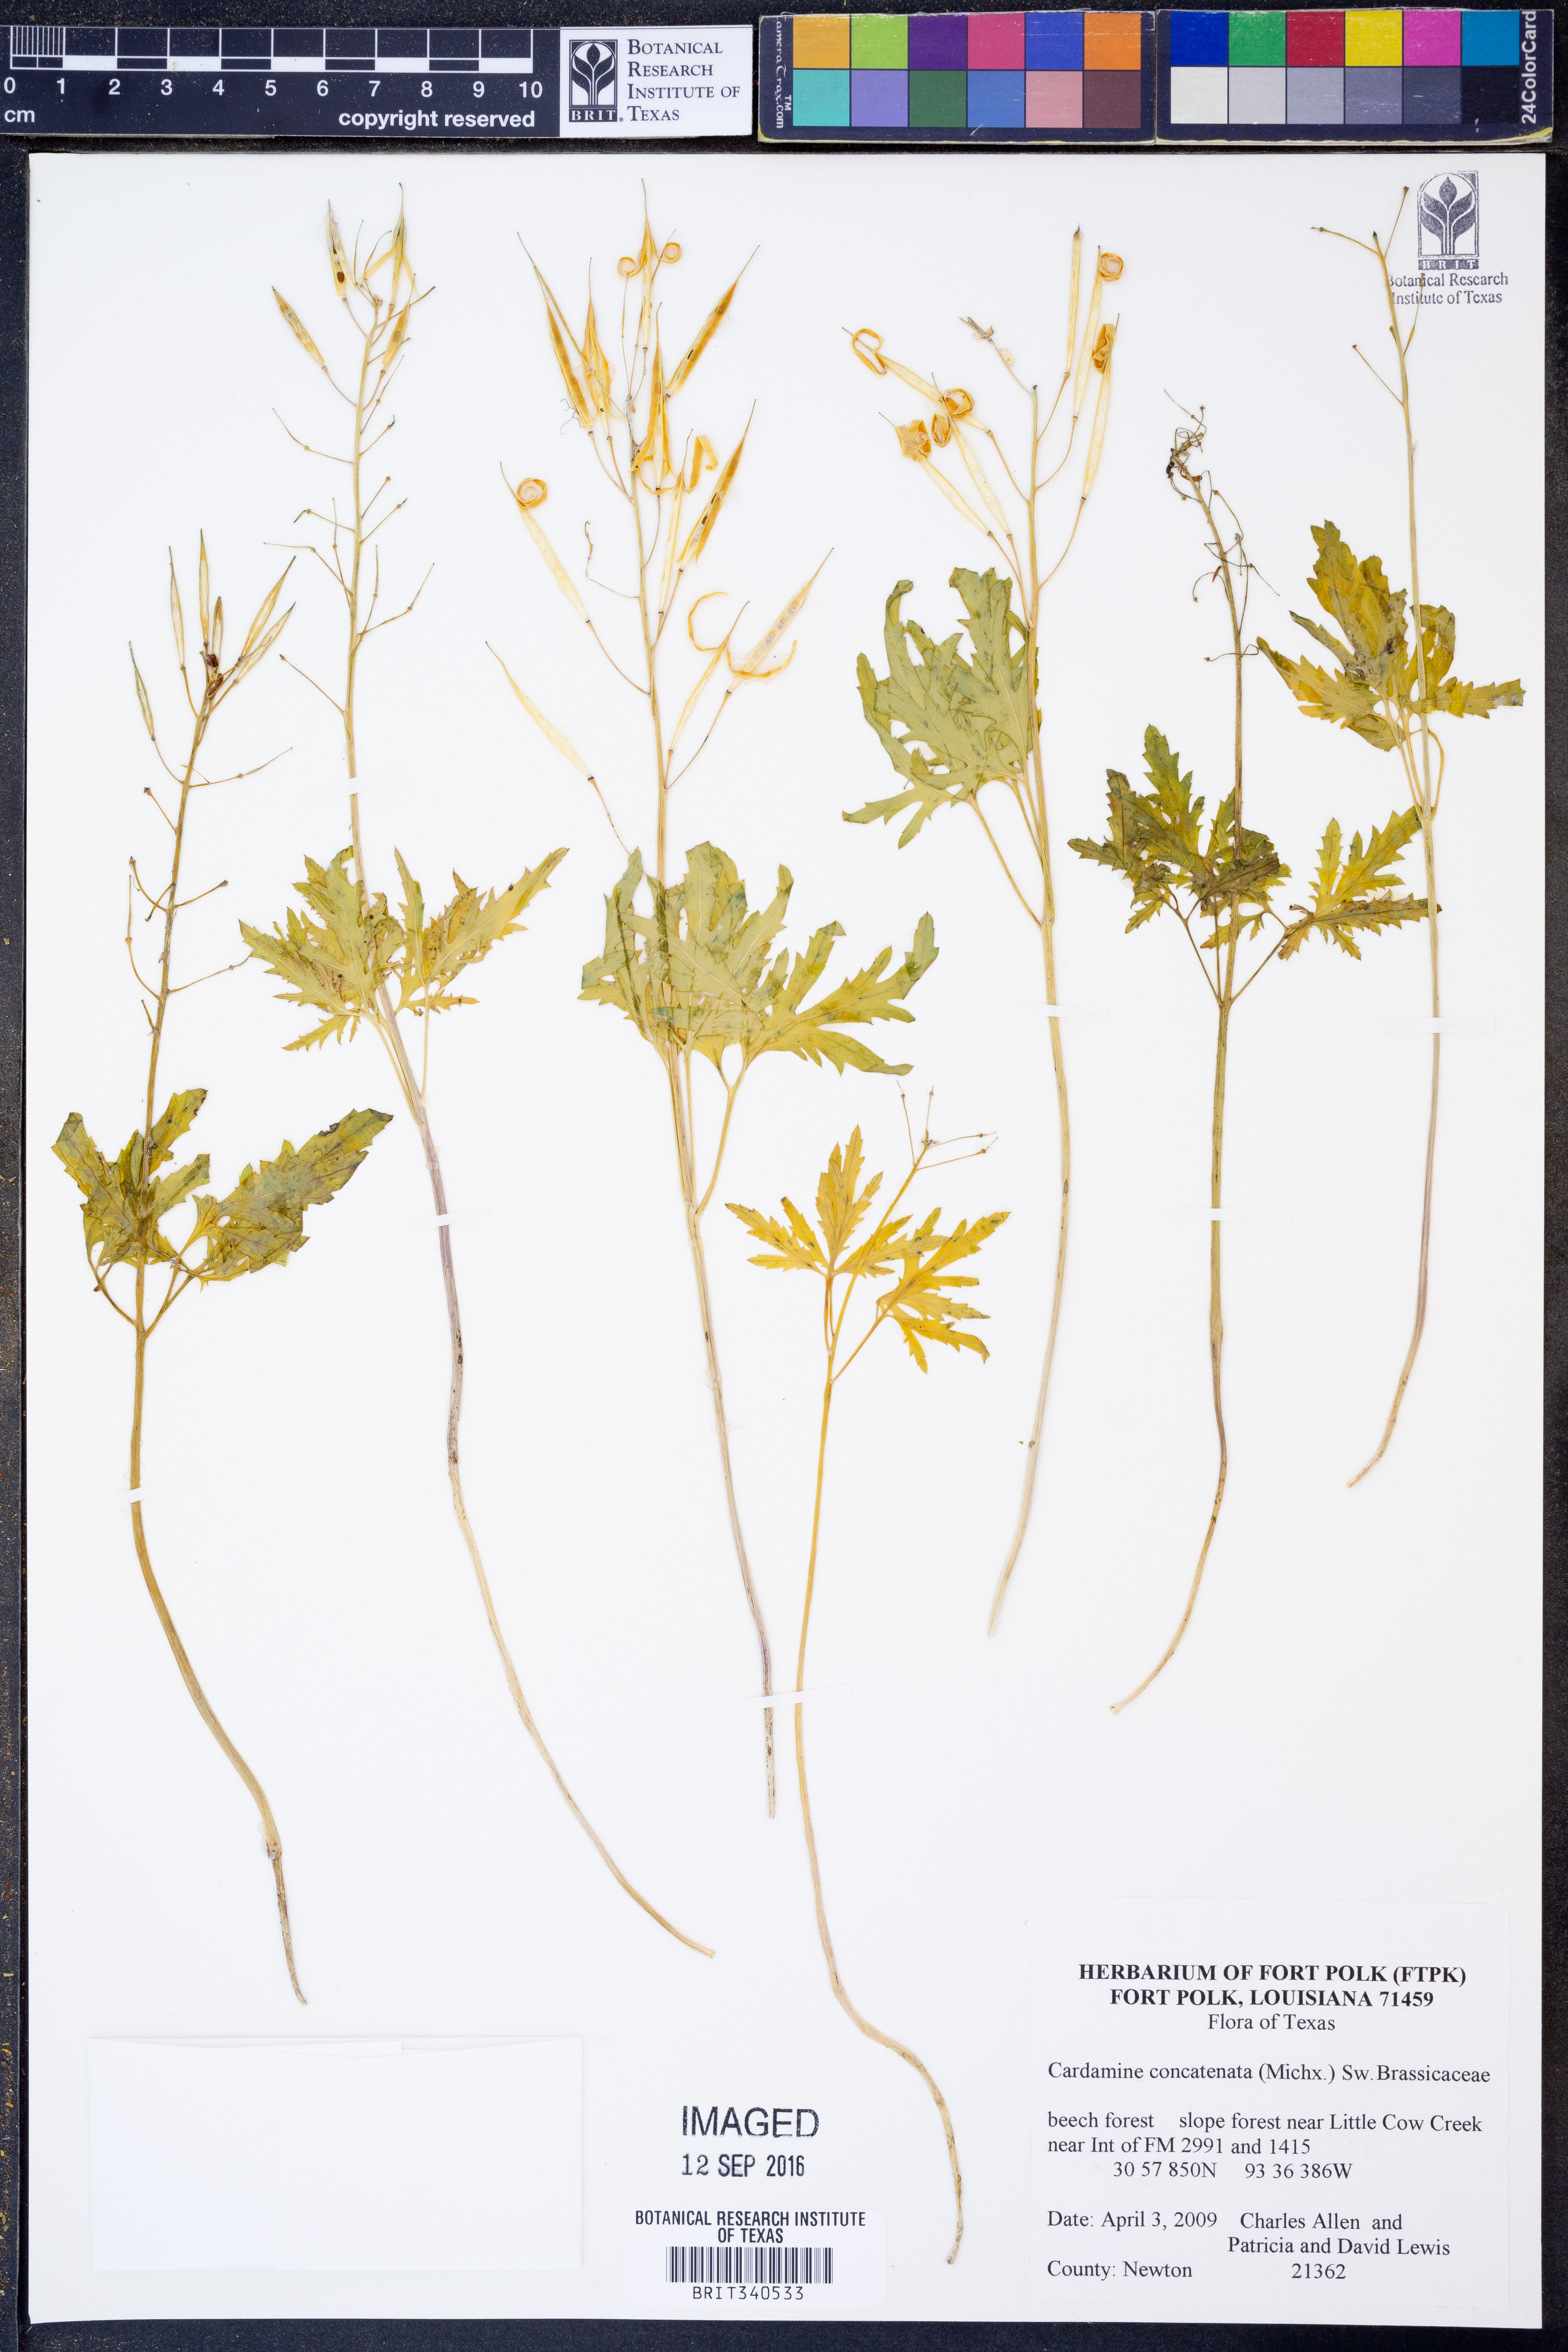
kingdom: Plantae
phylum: Tracheophyta
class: Magnoliopsida
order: Brassicales
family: Brassicaceae
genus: Cardamine
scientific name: Cardamine concatenata
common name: Cut-leaf toothcup
